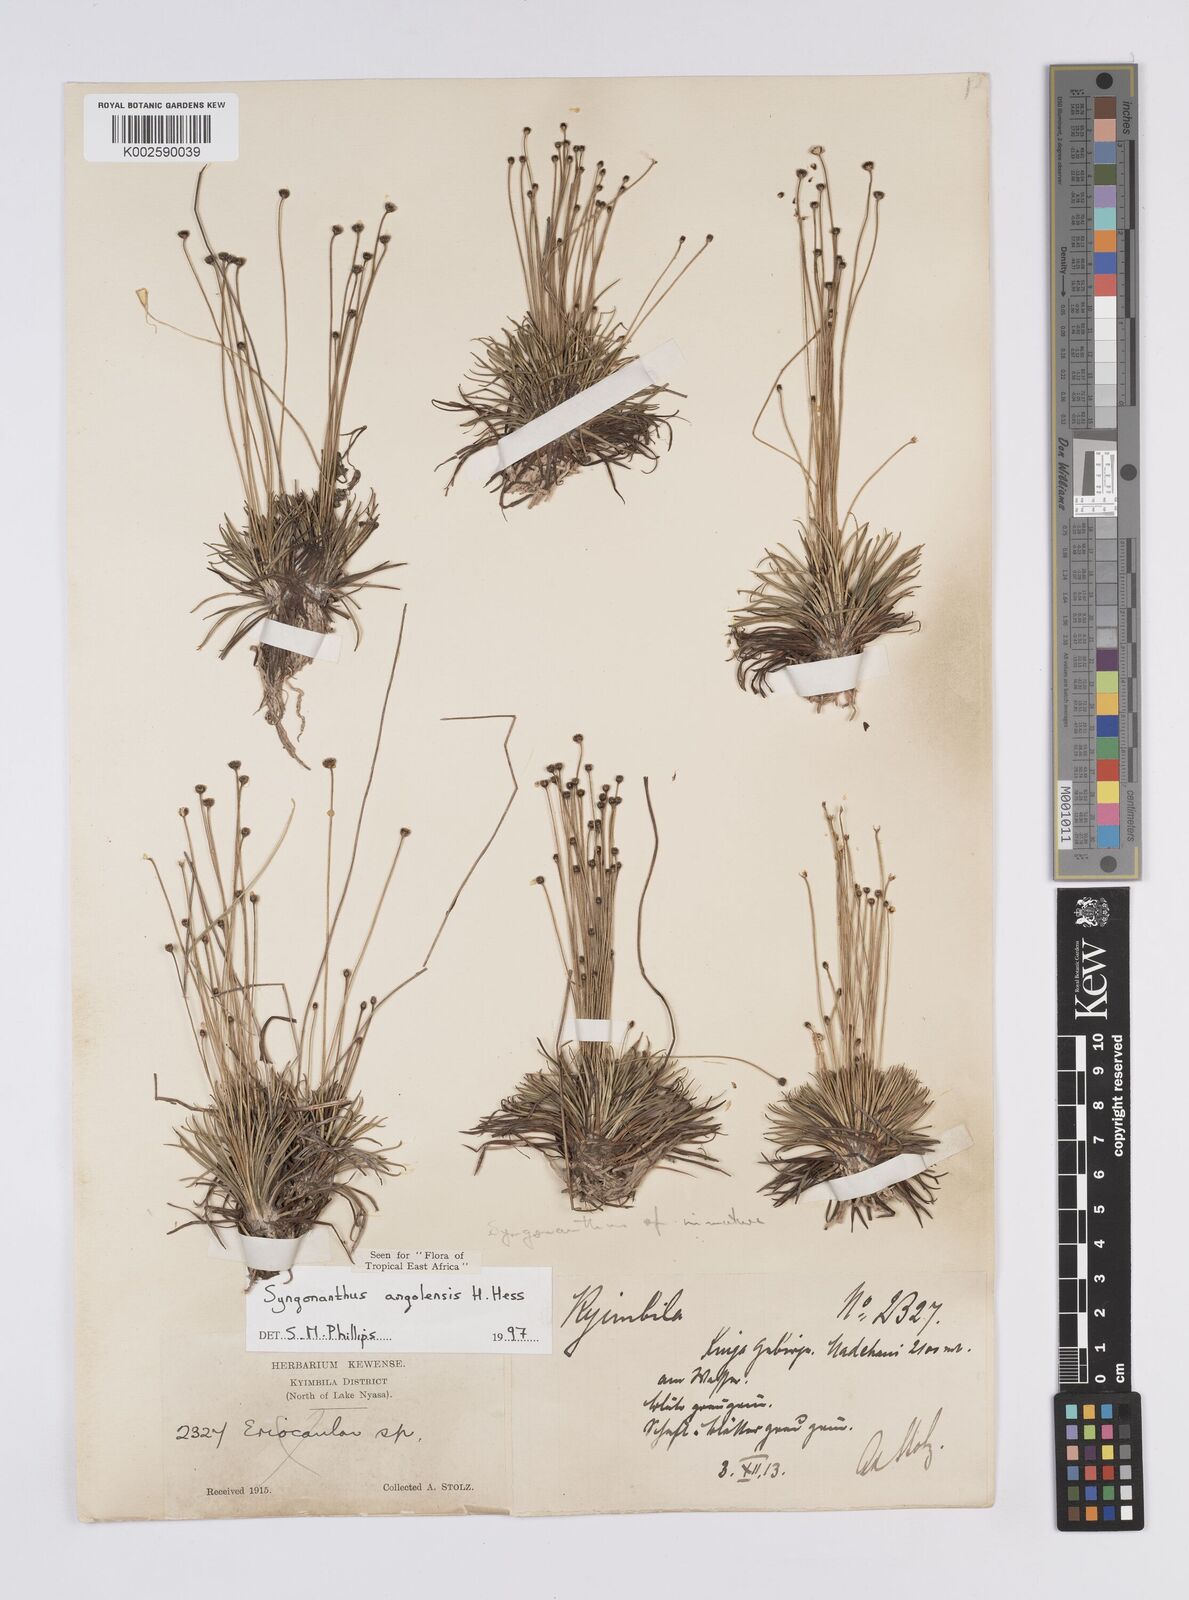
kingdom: Plantae
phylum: Tracheophyta
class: Liliopsida
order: Poales
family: Eriocaulaceae
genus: Syngonanthus
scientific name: Syngonanthus angolensis
